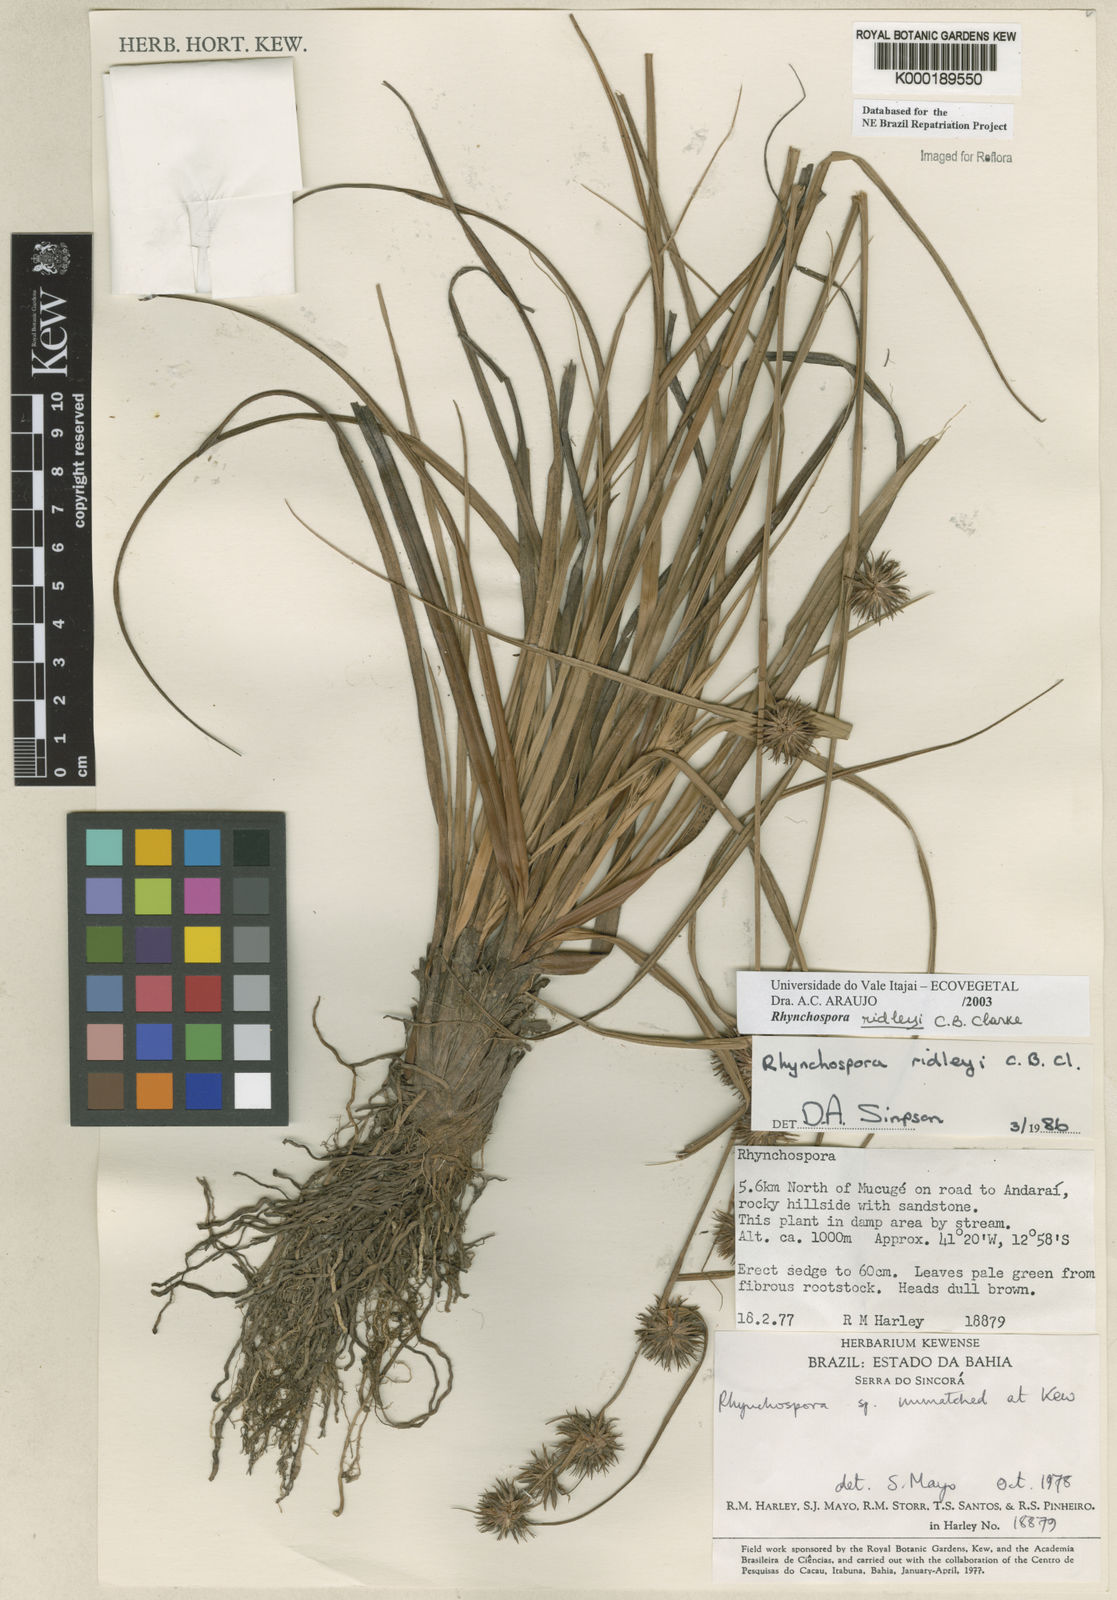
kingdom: Plantae
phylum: Tracheophyta
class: Liliopsida
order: Poales
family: Cyperaceae
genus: Rhynchospora
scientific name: Rhynchospora ridleyi
